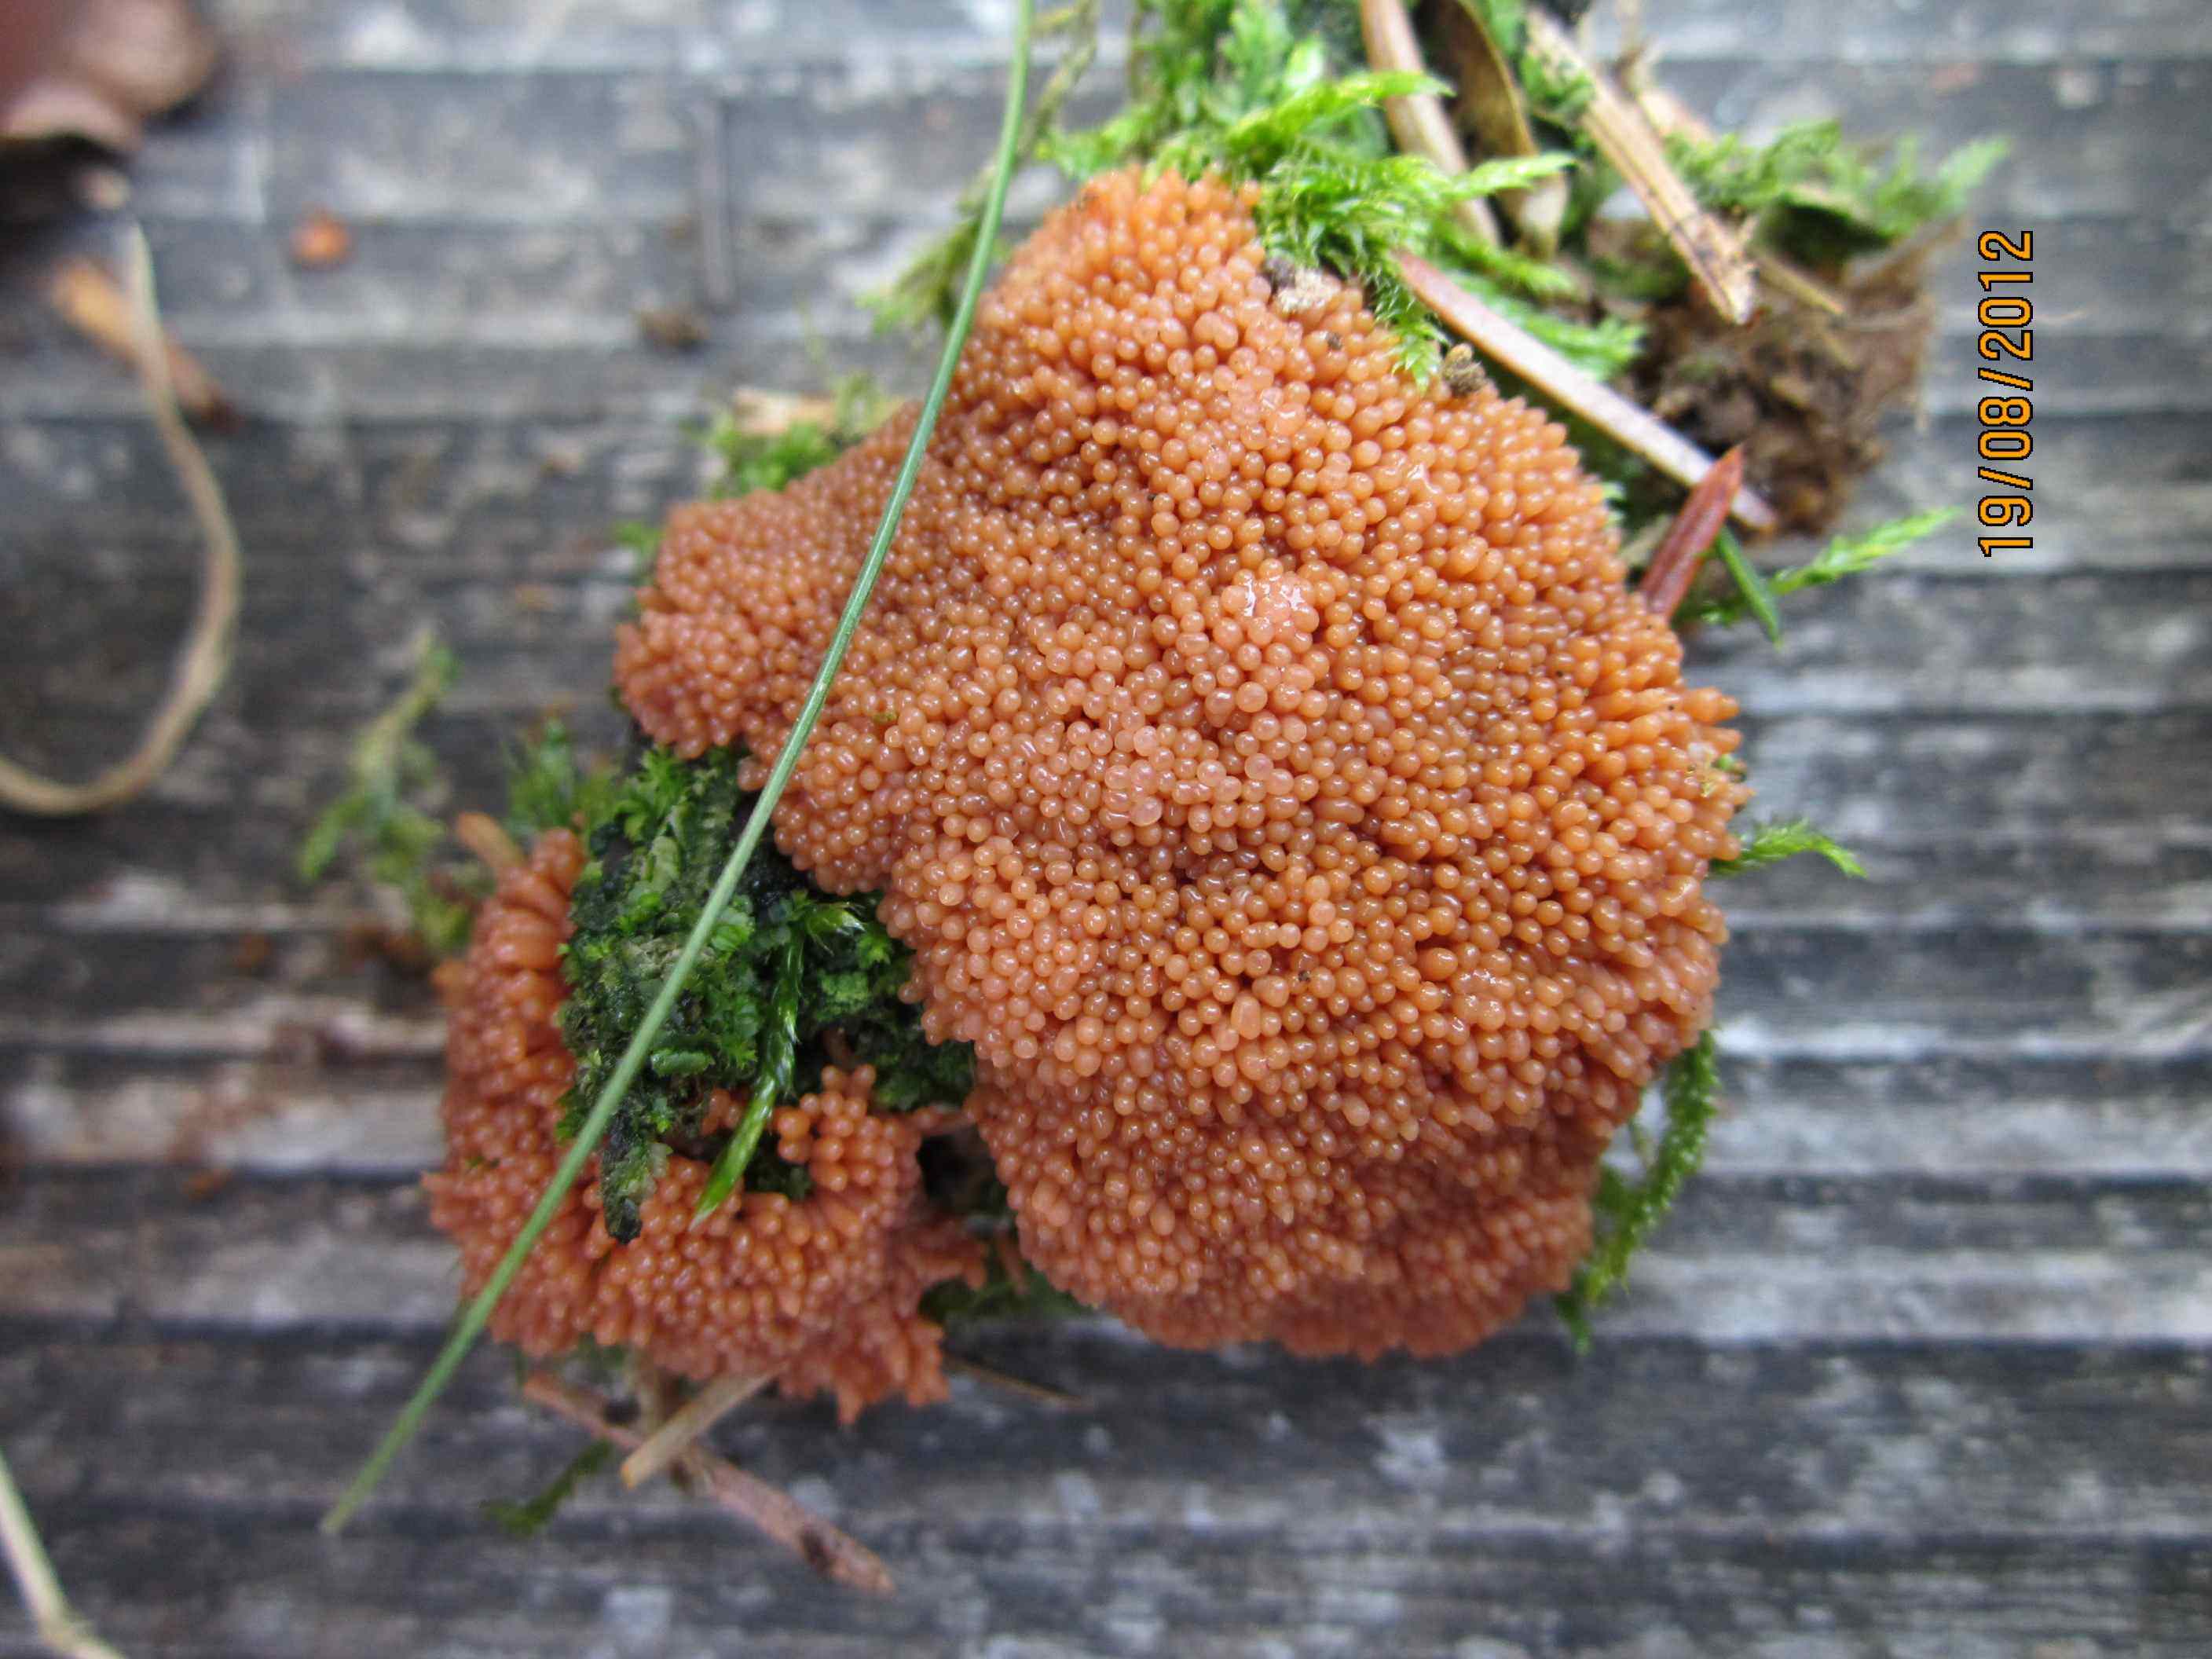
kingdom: Protozoa
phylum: Mycetozoa
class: Myxomycetes
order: Cribrariales
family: Tubiferaceae
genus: Tubifera
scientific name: Tubifera ferruginosa
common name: kanel-støvrør
